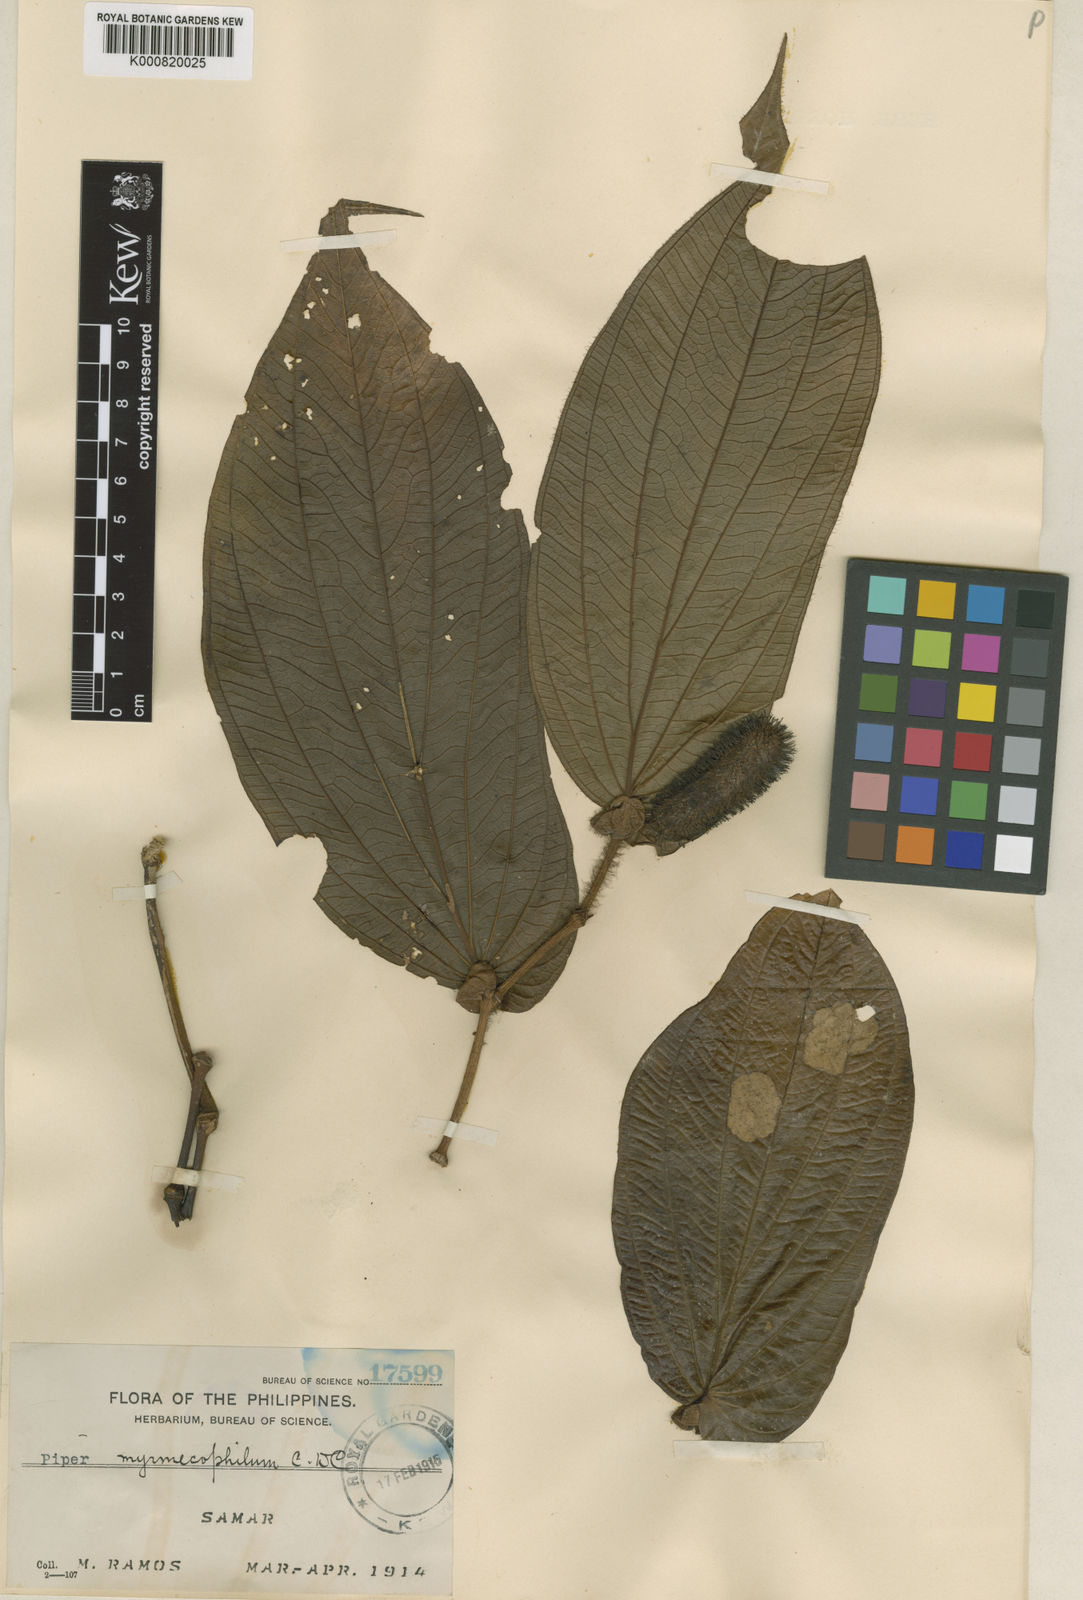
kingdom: Plantae
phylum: Tracheophyta
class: Magnoliopsida
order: Piperales
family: Piperaceae
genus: Piper
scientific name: Piper myrmecophilum
